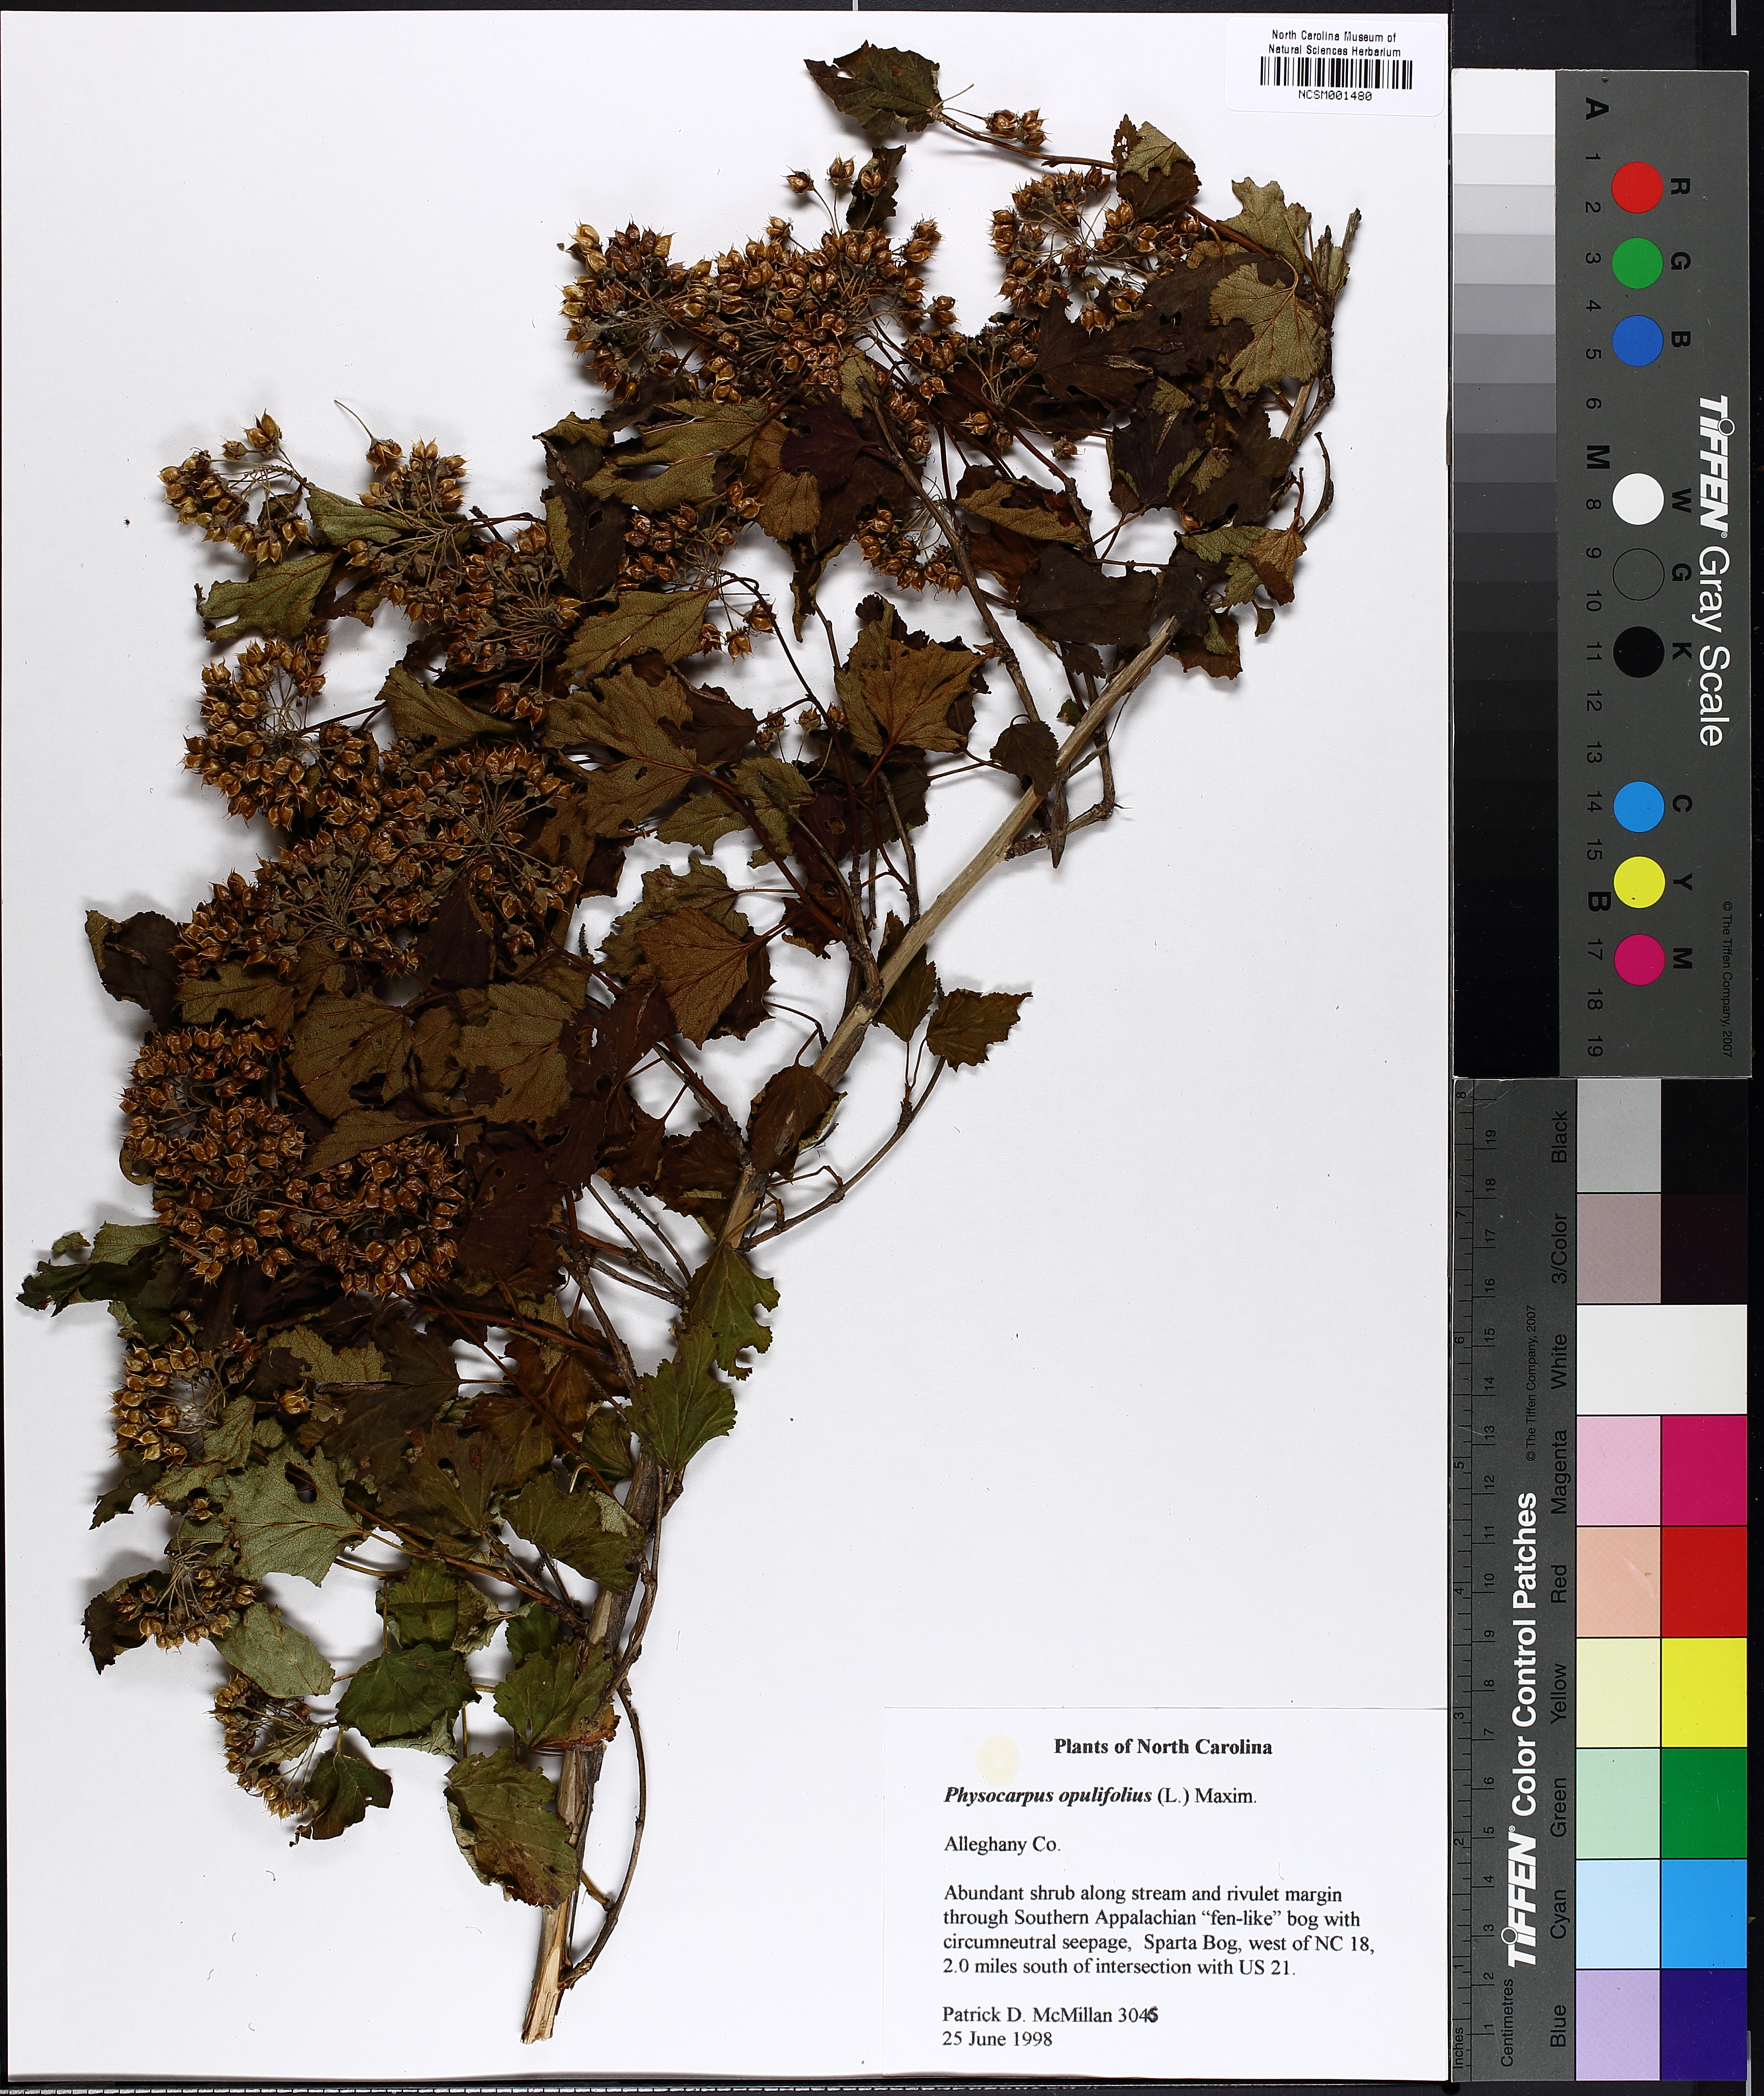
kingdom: Plantae
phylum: Tracheophyta
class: Magnoliopsida
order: Rosales
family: Rosaceae
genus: Physocarpus
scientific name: Physocarpus opulifolius
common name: Ninebark
